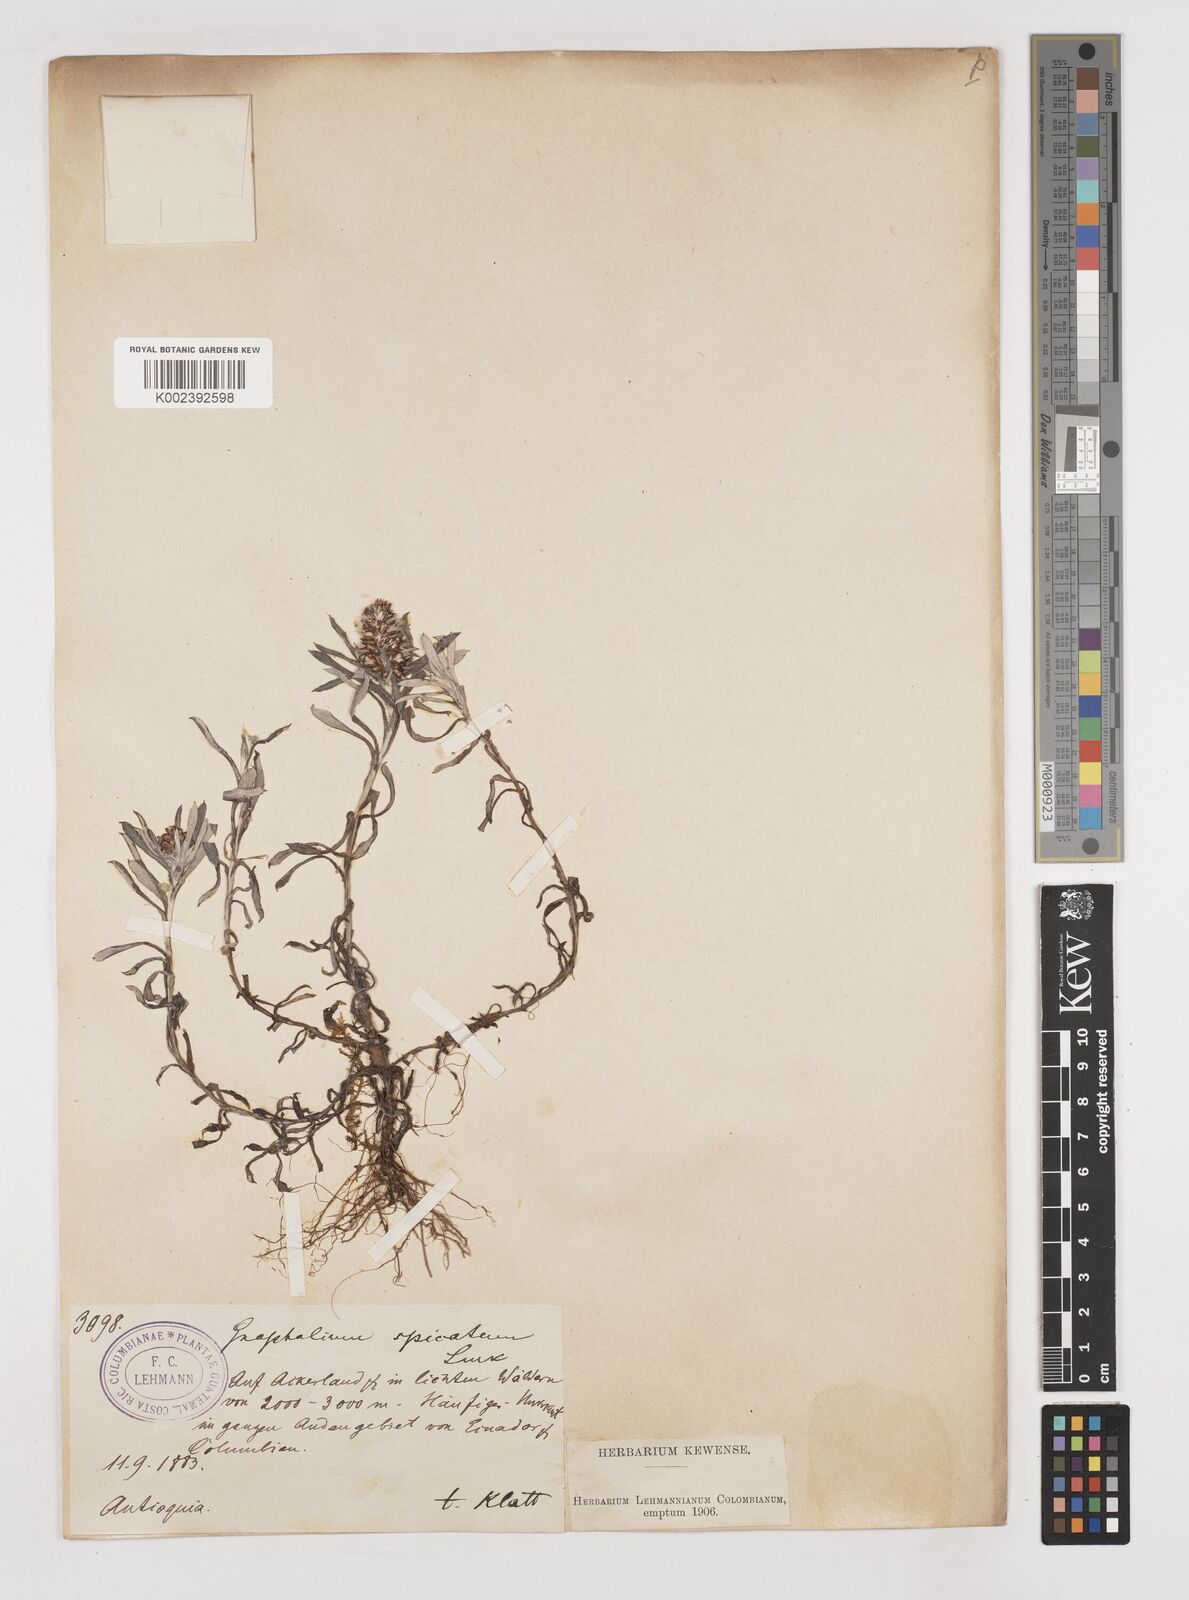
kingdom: Plantae
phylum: Tracheophyta
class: Magnoliopsida
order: Asterales
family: Asteraceae
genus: Gamochaeta
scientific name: Gamochaeta americana
